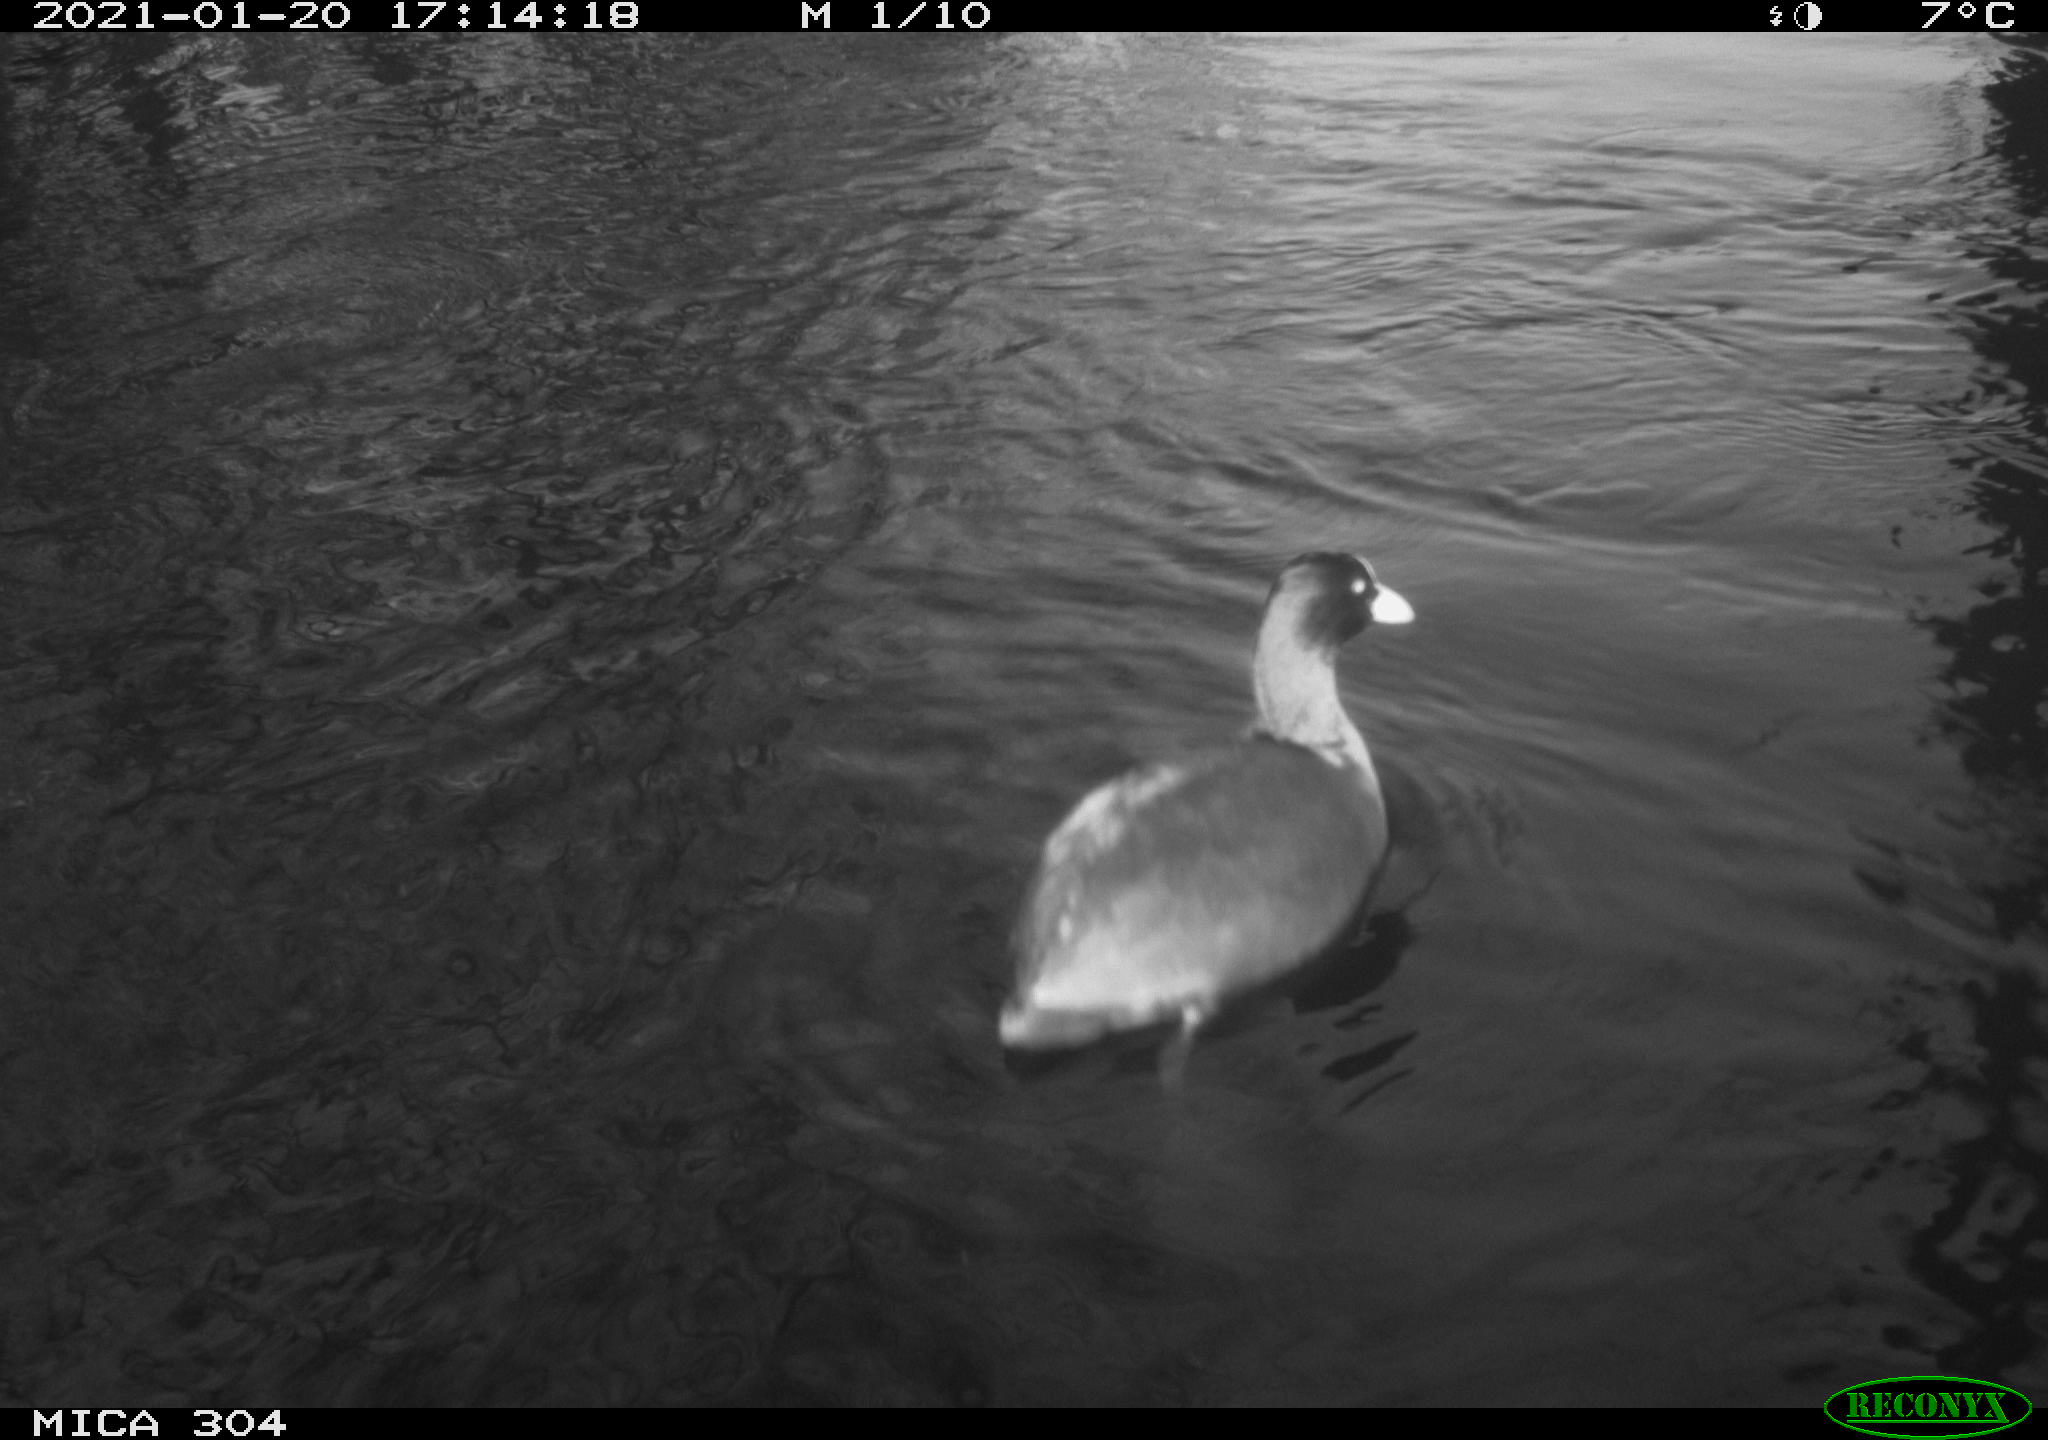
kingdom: Animalia
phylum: Chordata
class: Aves
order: Gruiformes
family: Rallidae
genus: Fulica
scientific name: Fulica atra
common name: Eurasian coot
